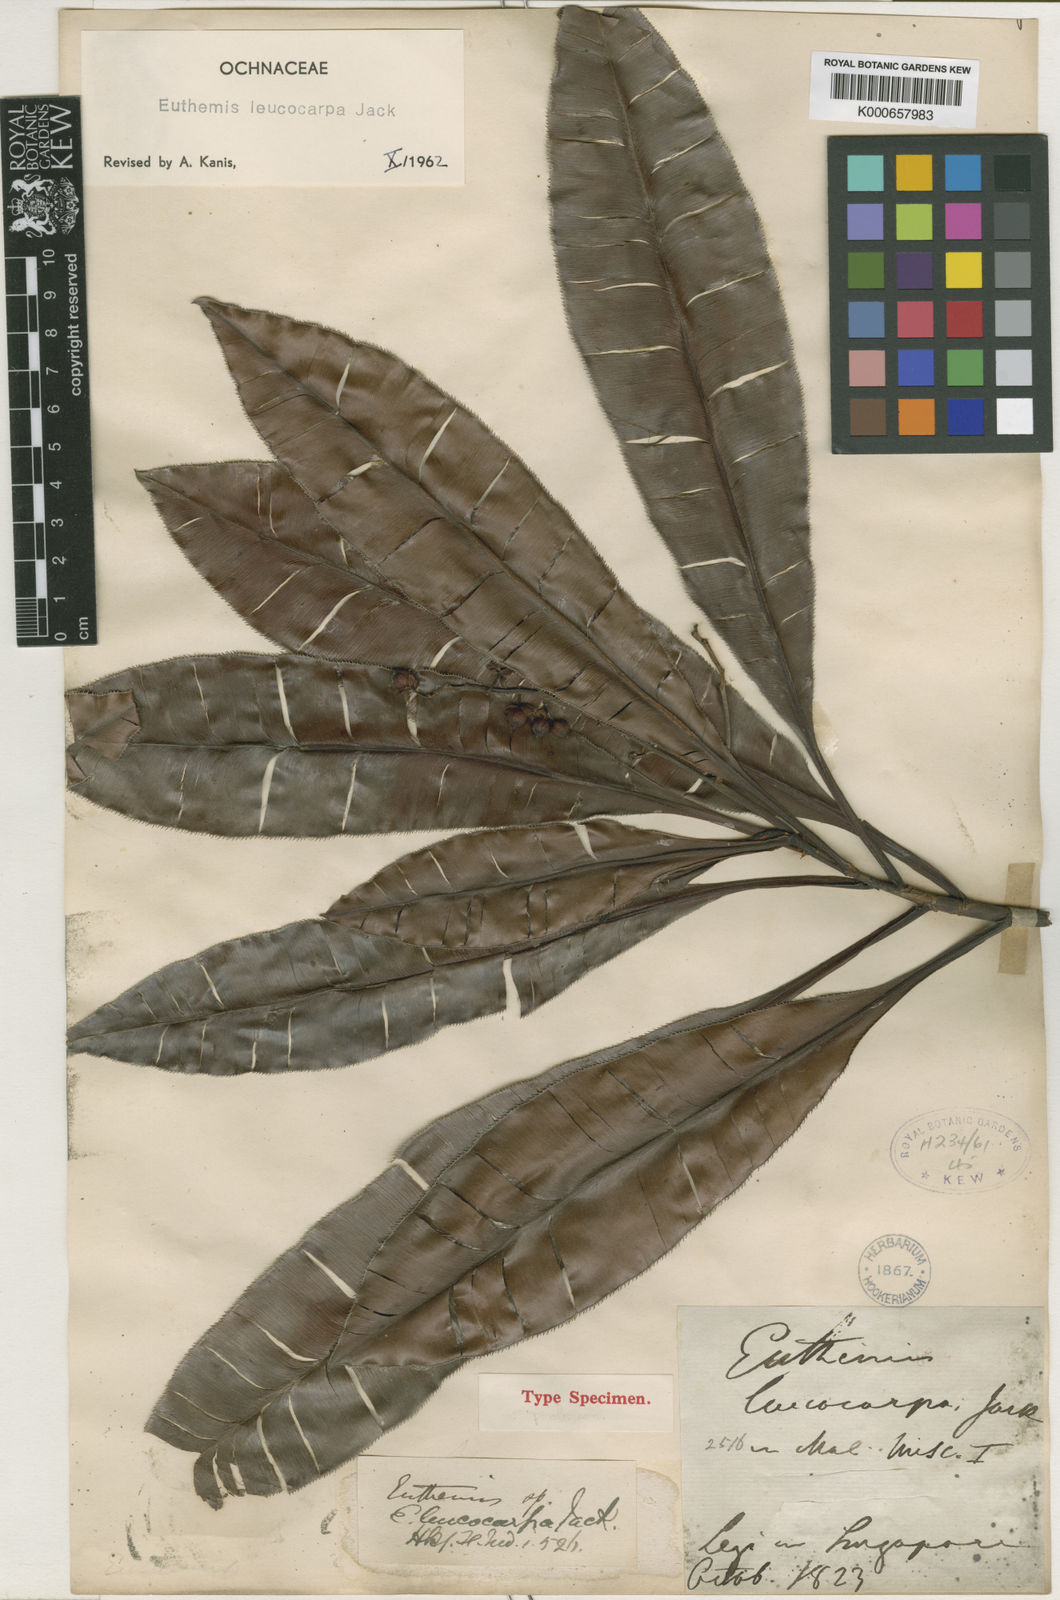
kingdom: Plantae
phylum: Tracheophyta
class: Magnoliopsida
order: Malpighiales
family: Ochnaceae
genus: Euthemis
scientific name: Euthemis leucocarpa
